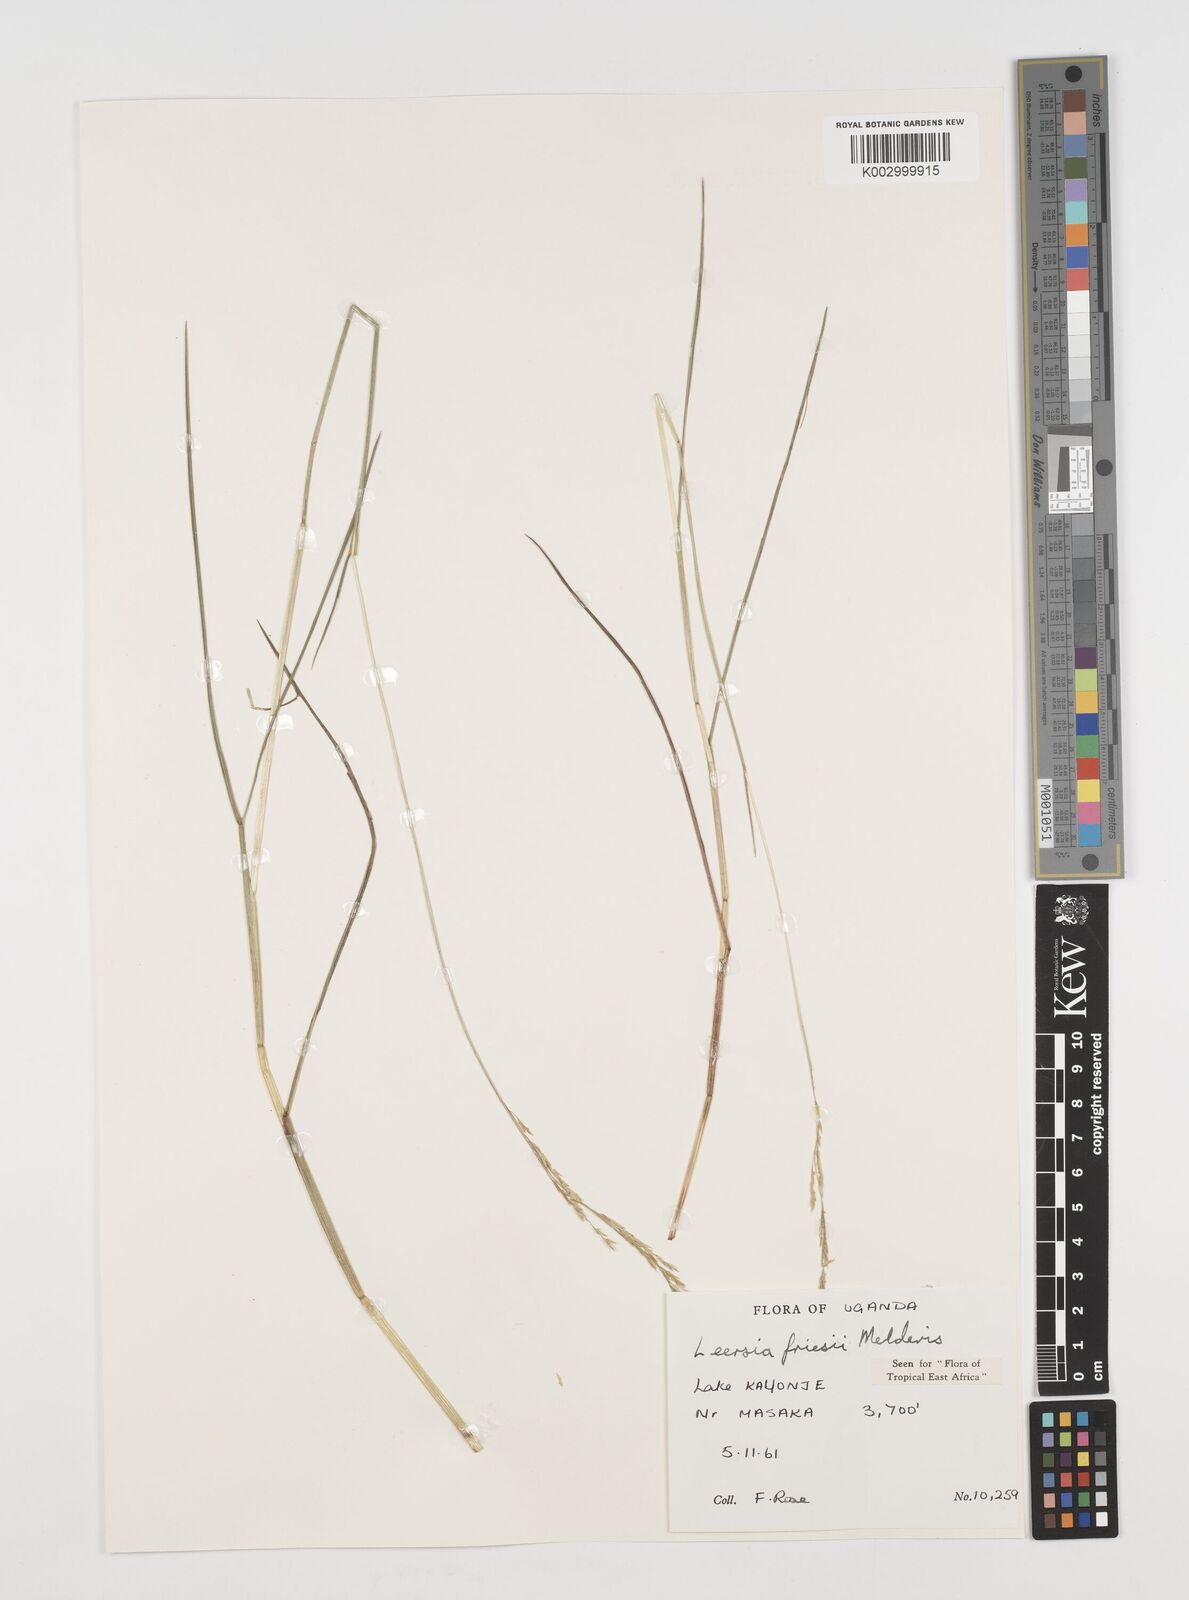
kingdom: Plantae
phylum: Tracheophyta
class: Liliopsida
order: Poales
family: Poaceae
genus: Leersia
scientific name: Leersia friesii
